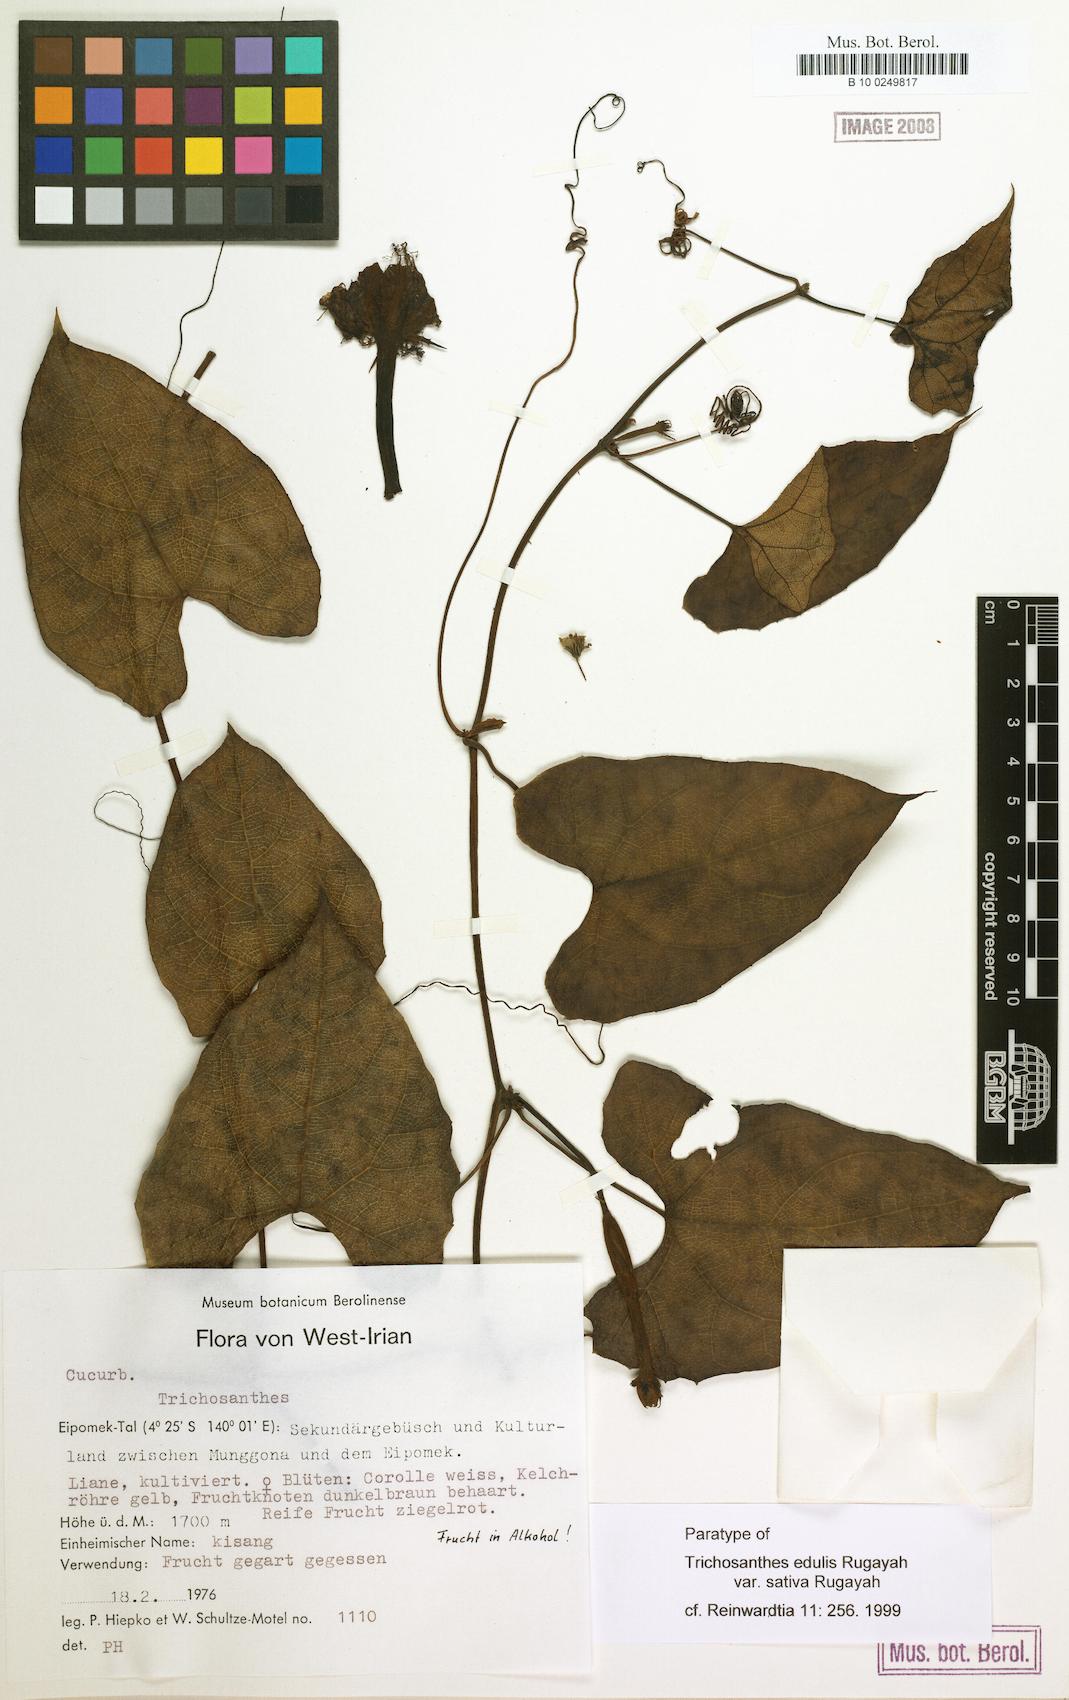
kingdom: Plantae
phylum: Tracheophyta
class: Magnoliopsida
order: Cucurbitales
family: Cucurbitaceae
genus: Trichosanthes
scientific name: Trichosanthes edulis
